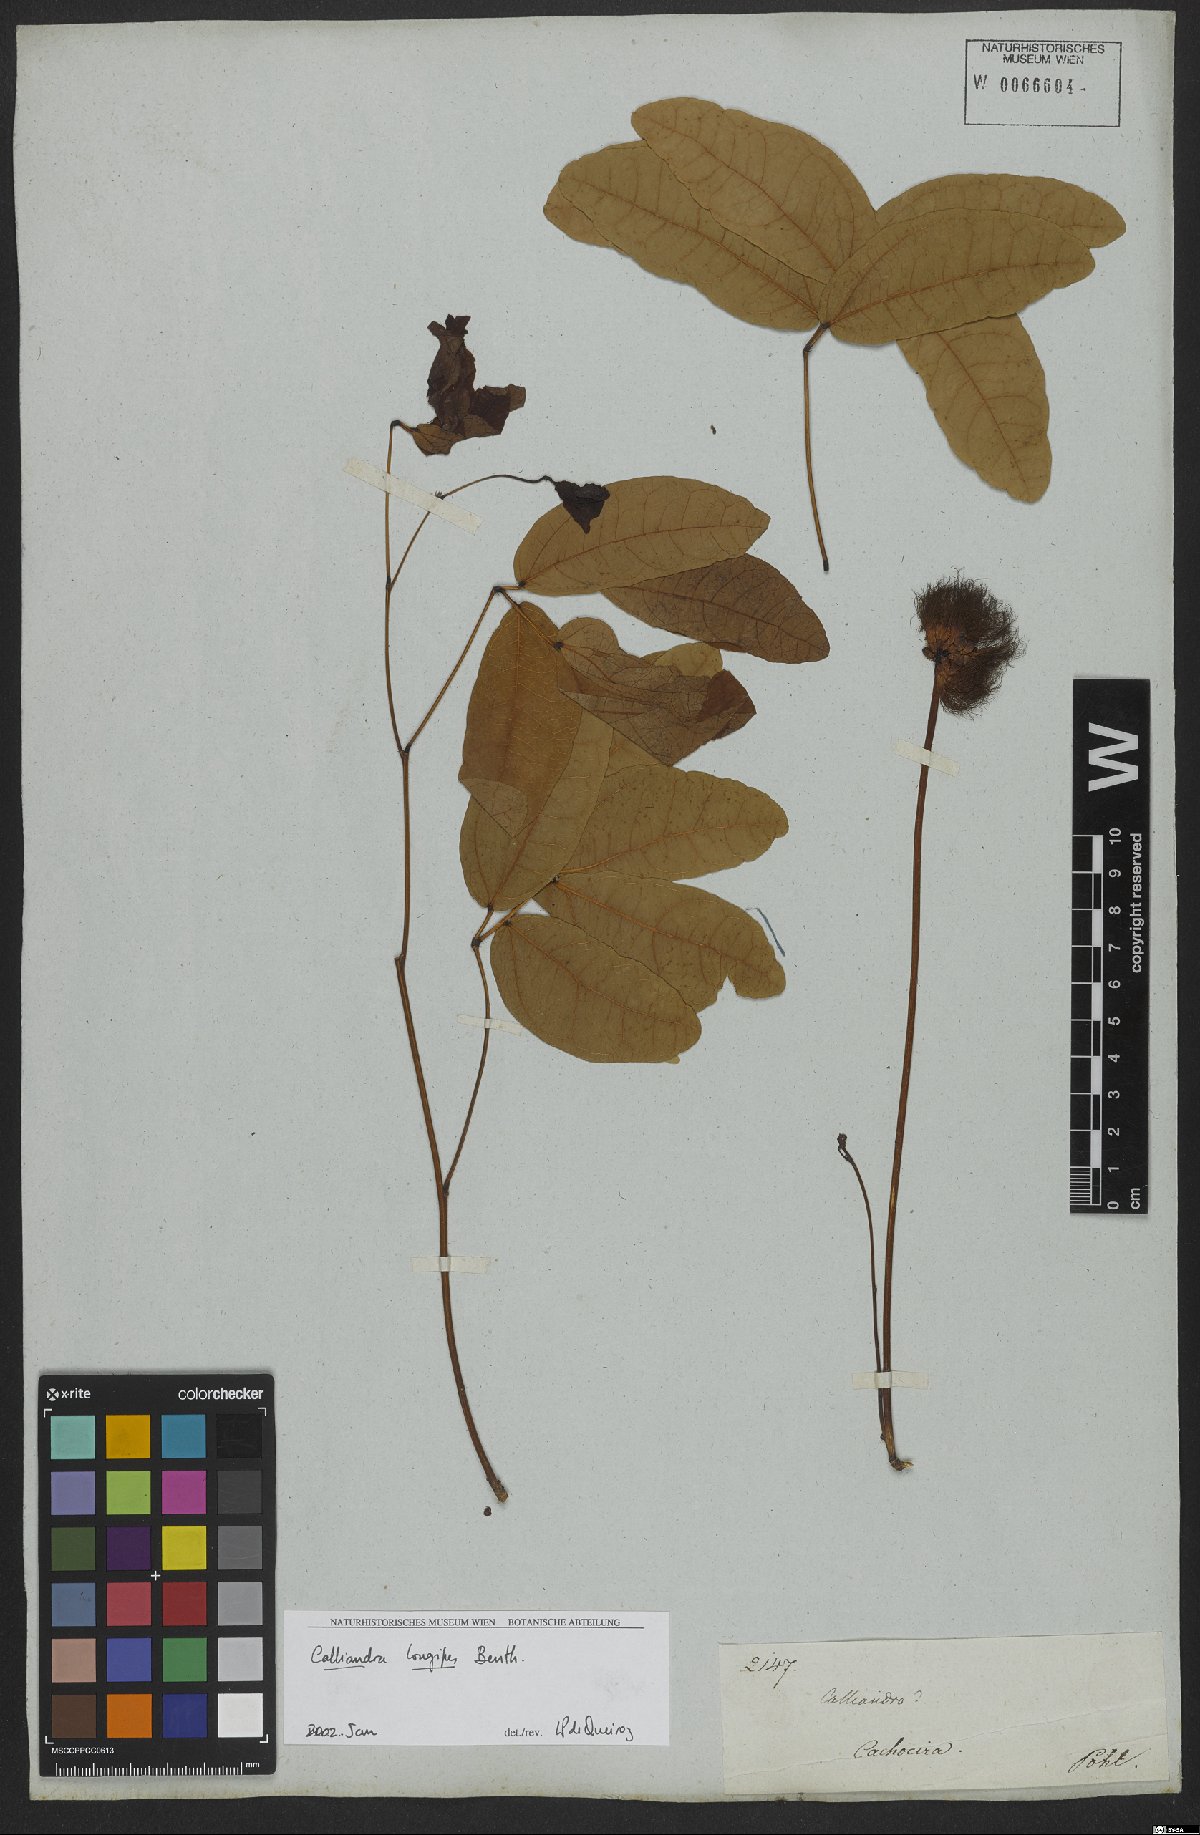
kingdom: Plantae
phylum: Tracheophyta
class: Magnoliopsida
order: Fabales
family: Fabaceae
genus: Calliandra
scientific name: Calliandra longipes
